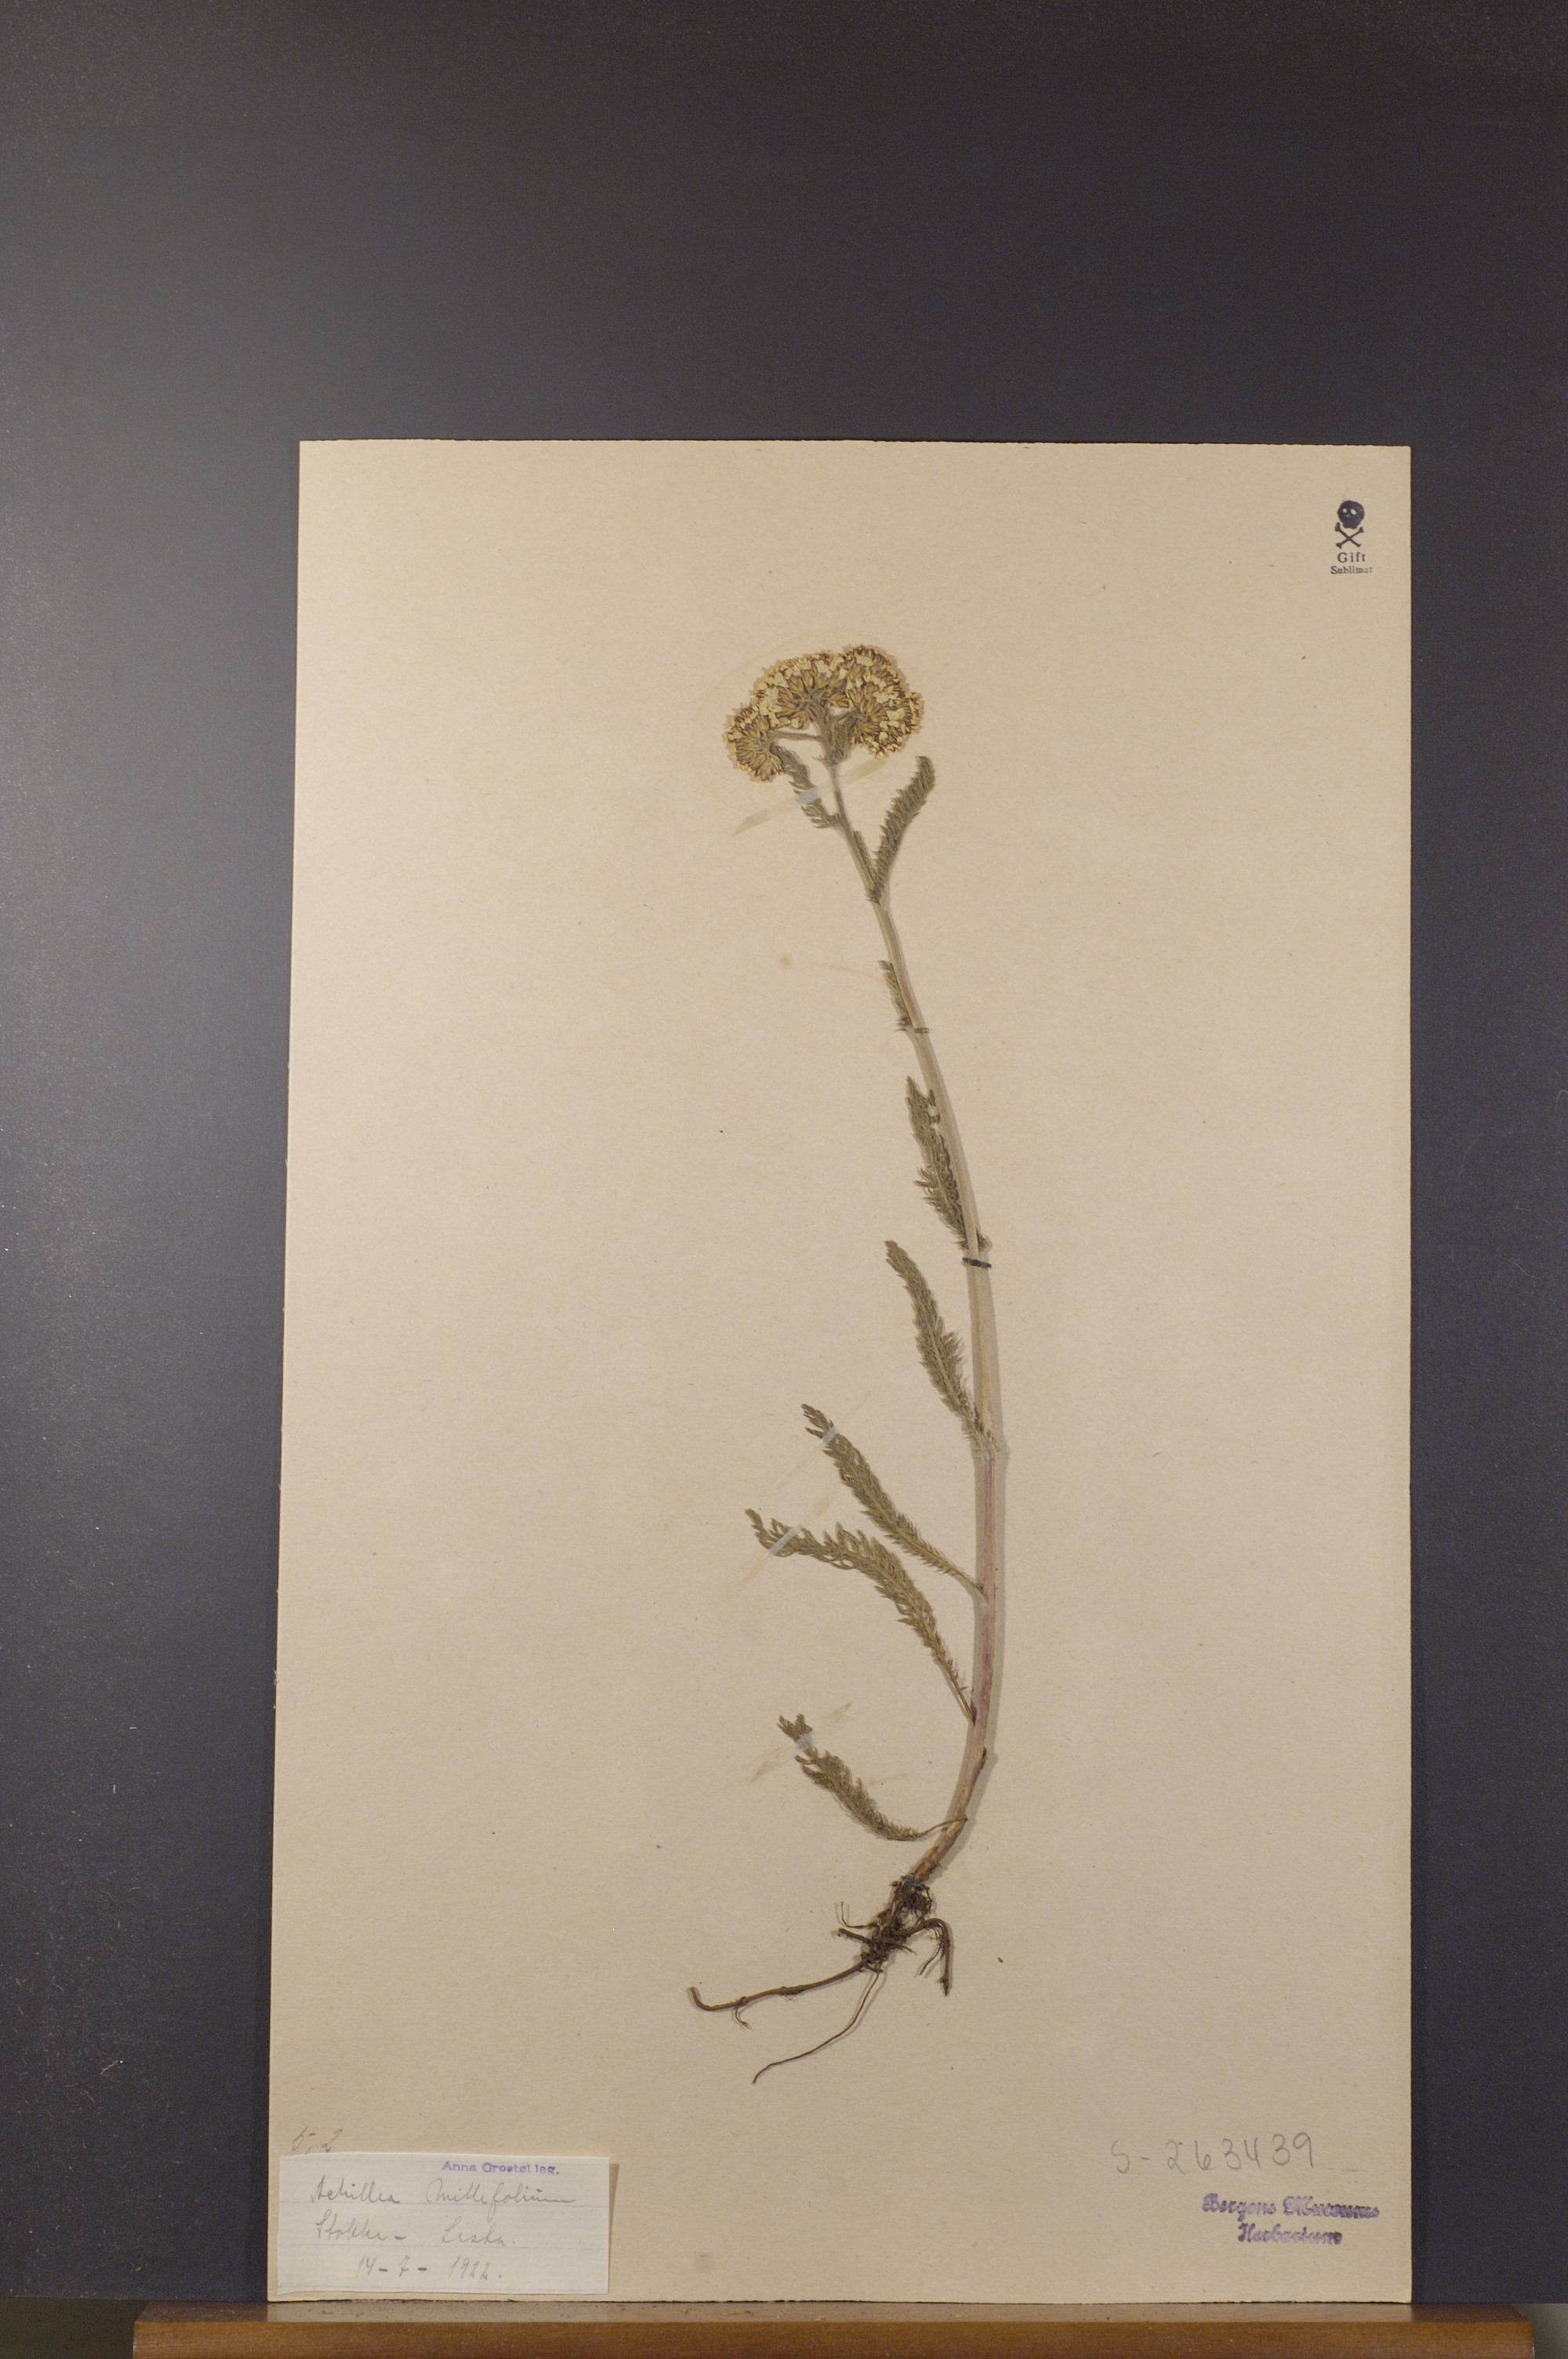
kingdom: Plantae
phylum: Tracheophyta
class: Magnoliopsida
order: Asterales
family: Asteraceae
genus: Achillea
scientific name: Achillea millefolium
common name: Yarrow
